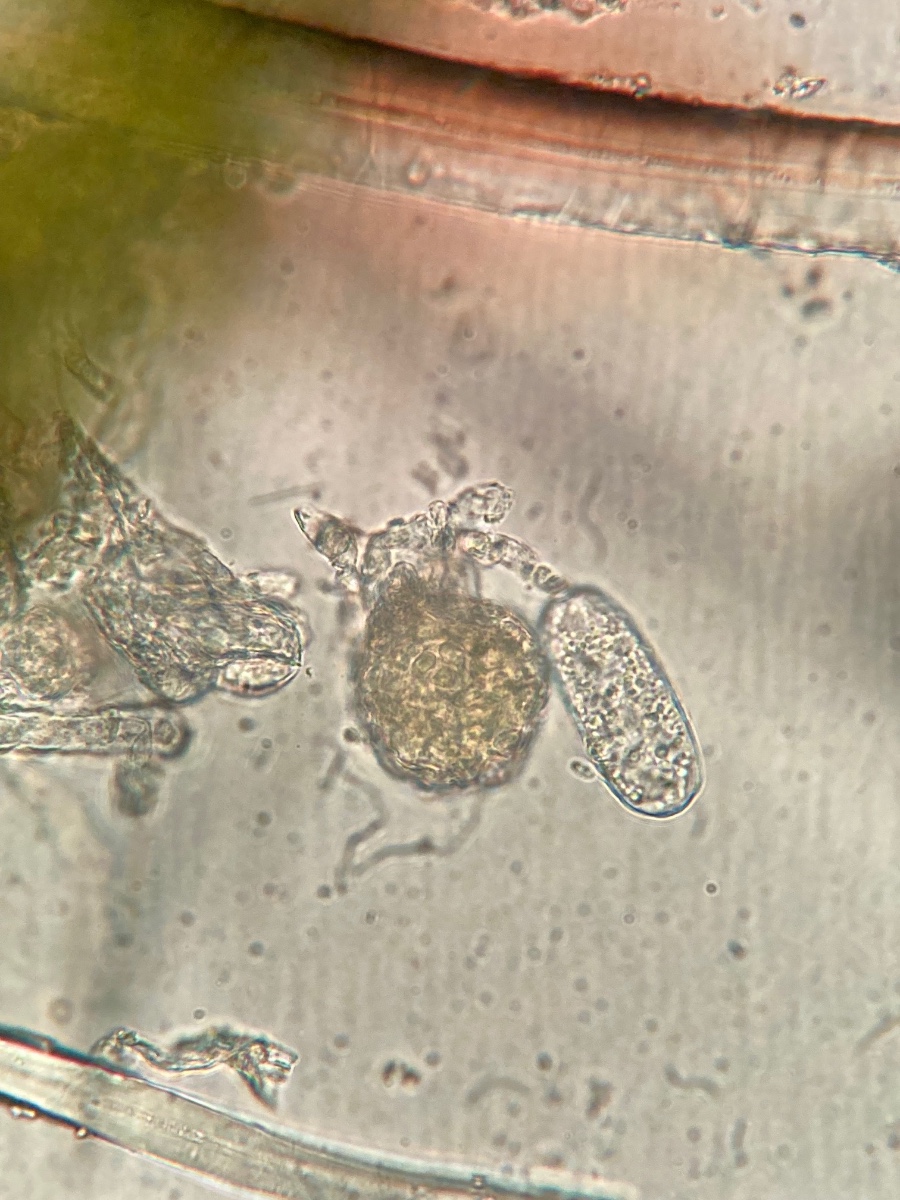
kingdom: Fungi
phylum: Ascomycota
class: Leotiomycetes
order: Helotiales
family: Erysiphaceae
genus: Erysiphe
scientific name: Erysiphe ornata
